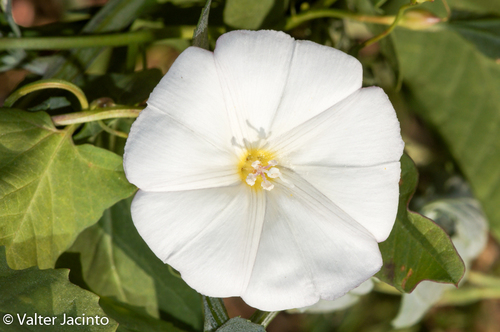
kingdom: Plantae
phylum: Tracheophyta
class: Magnoliopsida
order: Solanales
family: Convolvulaceae
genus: Convolvulus
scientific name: Convolvulus arvensis
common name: Field bindweed
